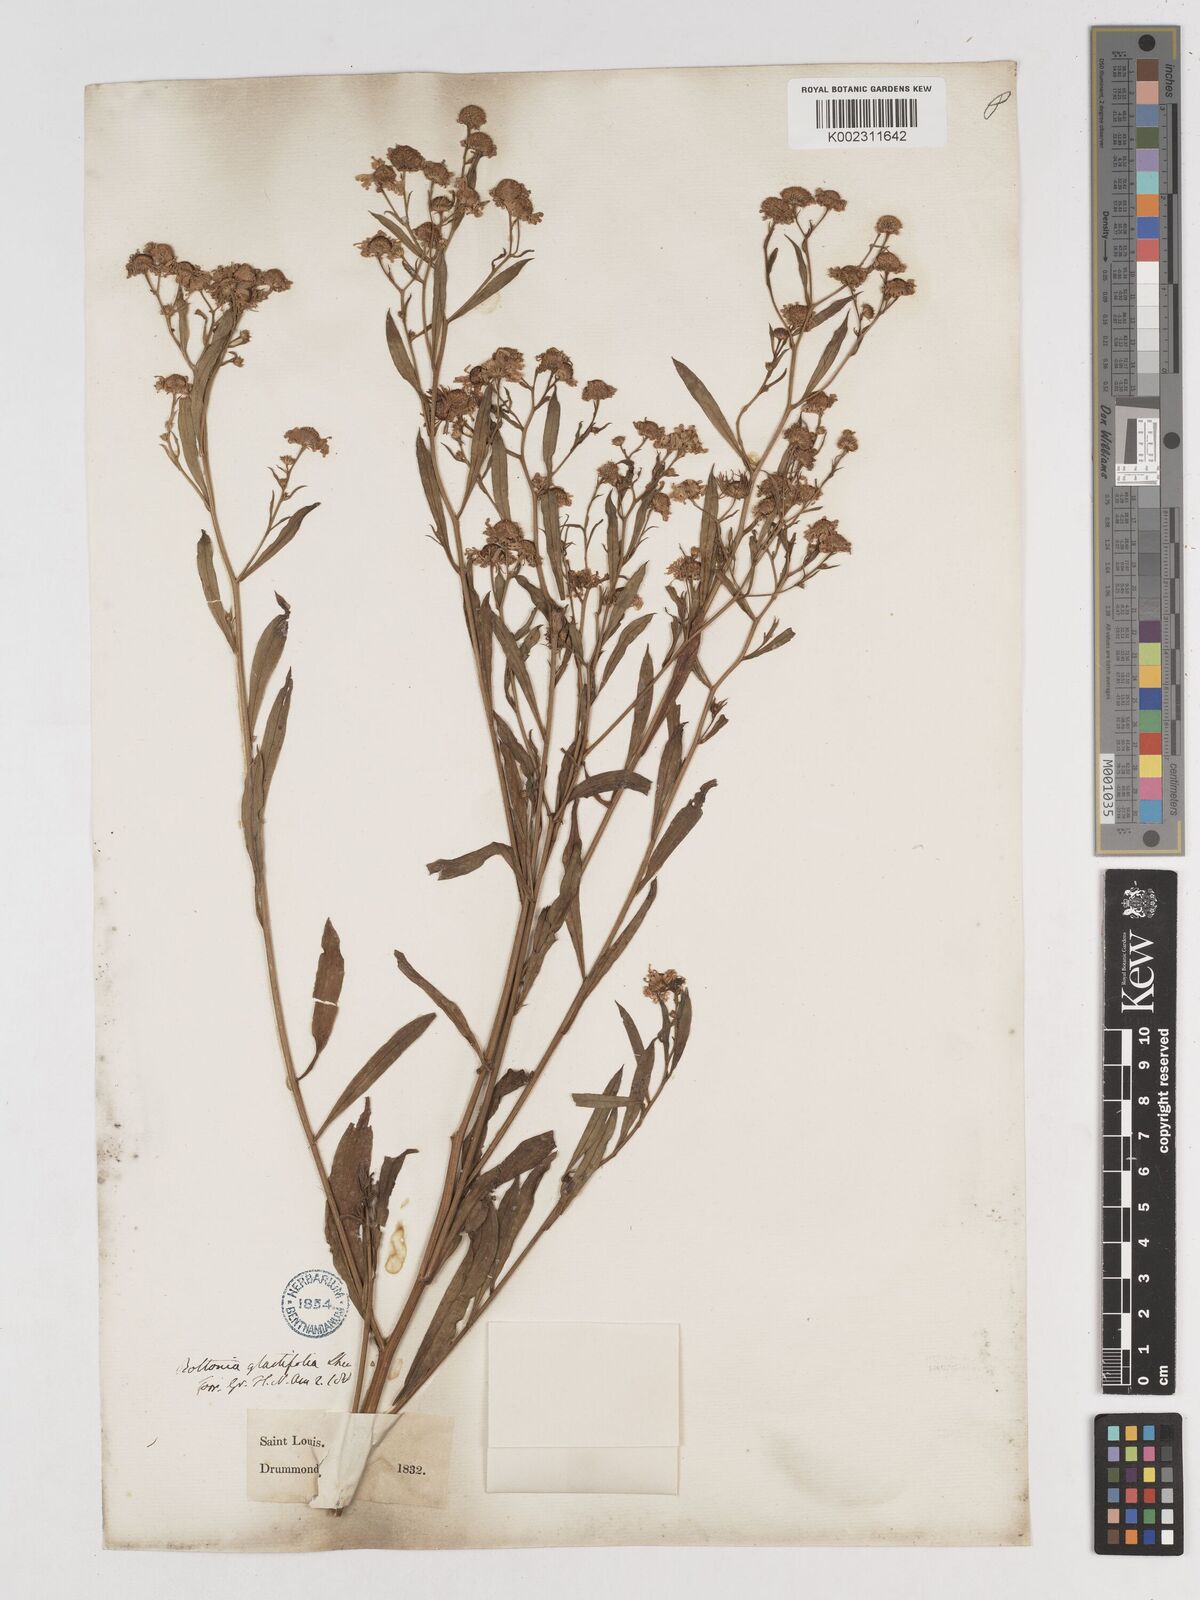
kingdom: Plantae
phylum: Tracheophyta
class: Magnoliopsida
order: Asterales
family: Asteraceae
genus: Boltonia
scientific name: Boltonia diffusa
